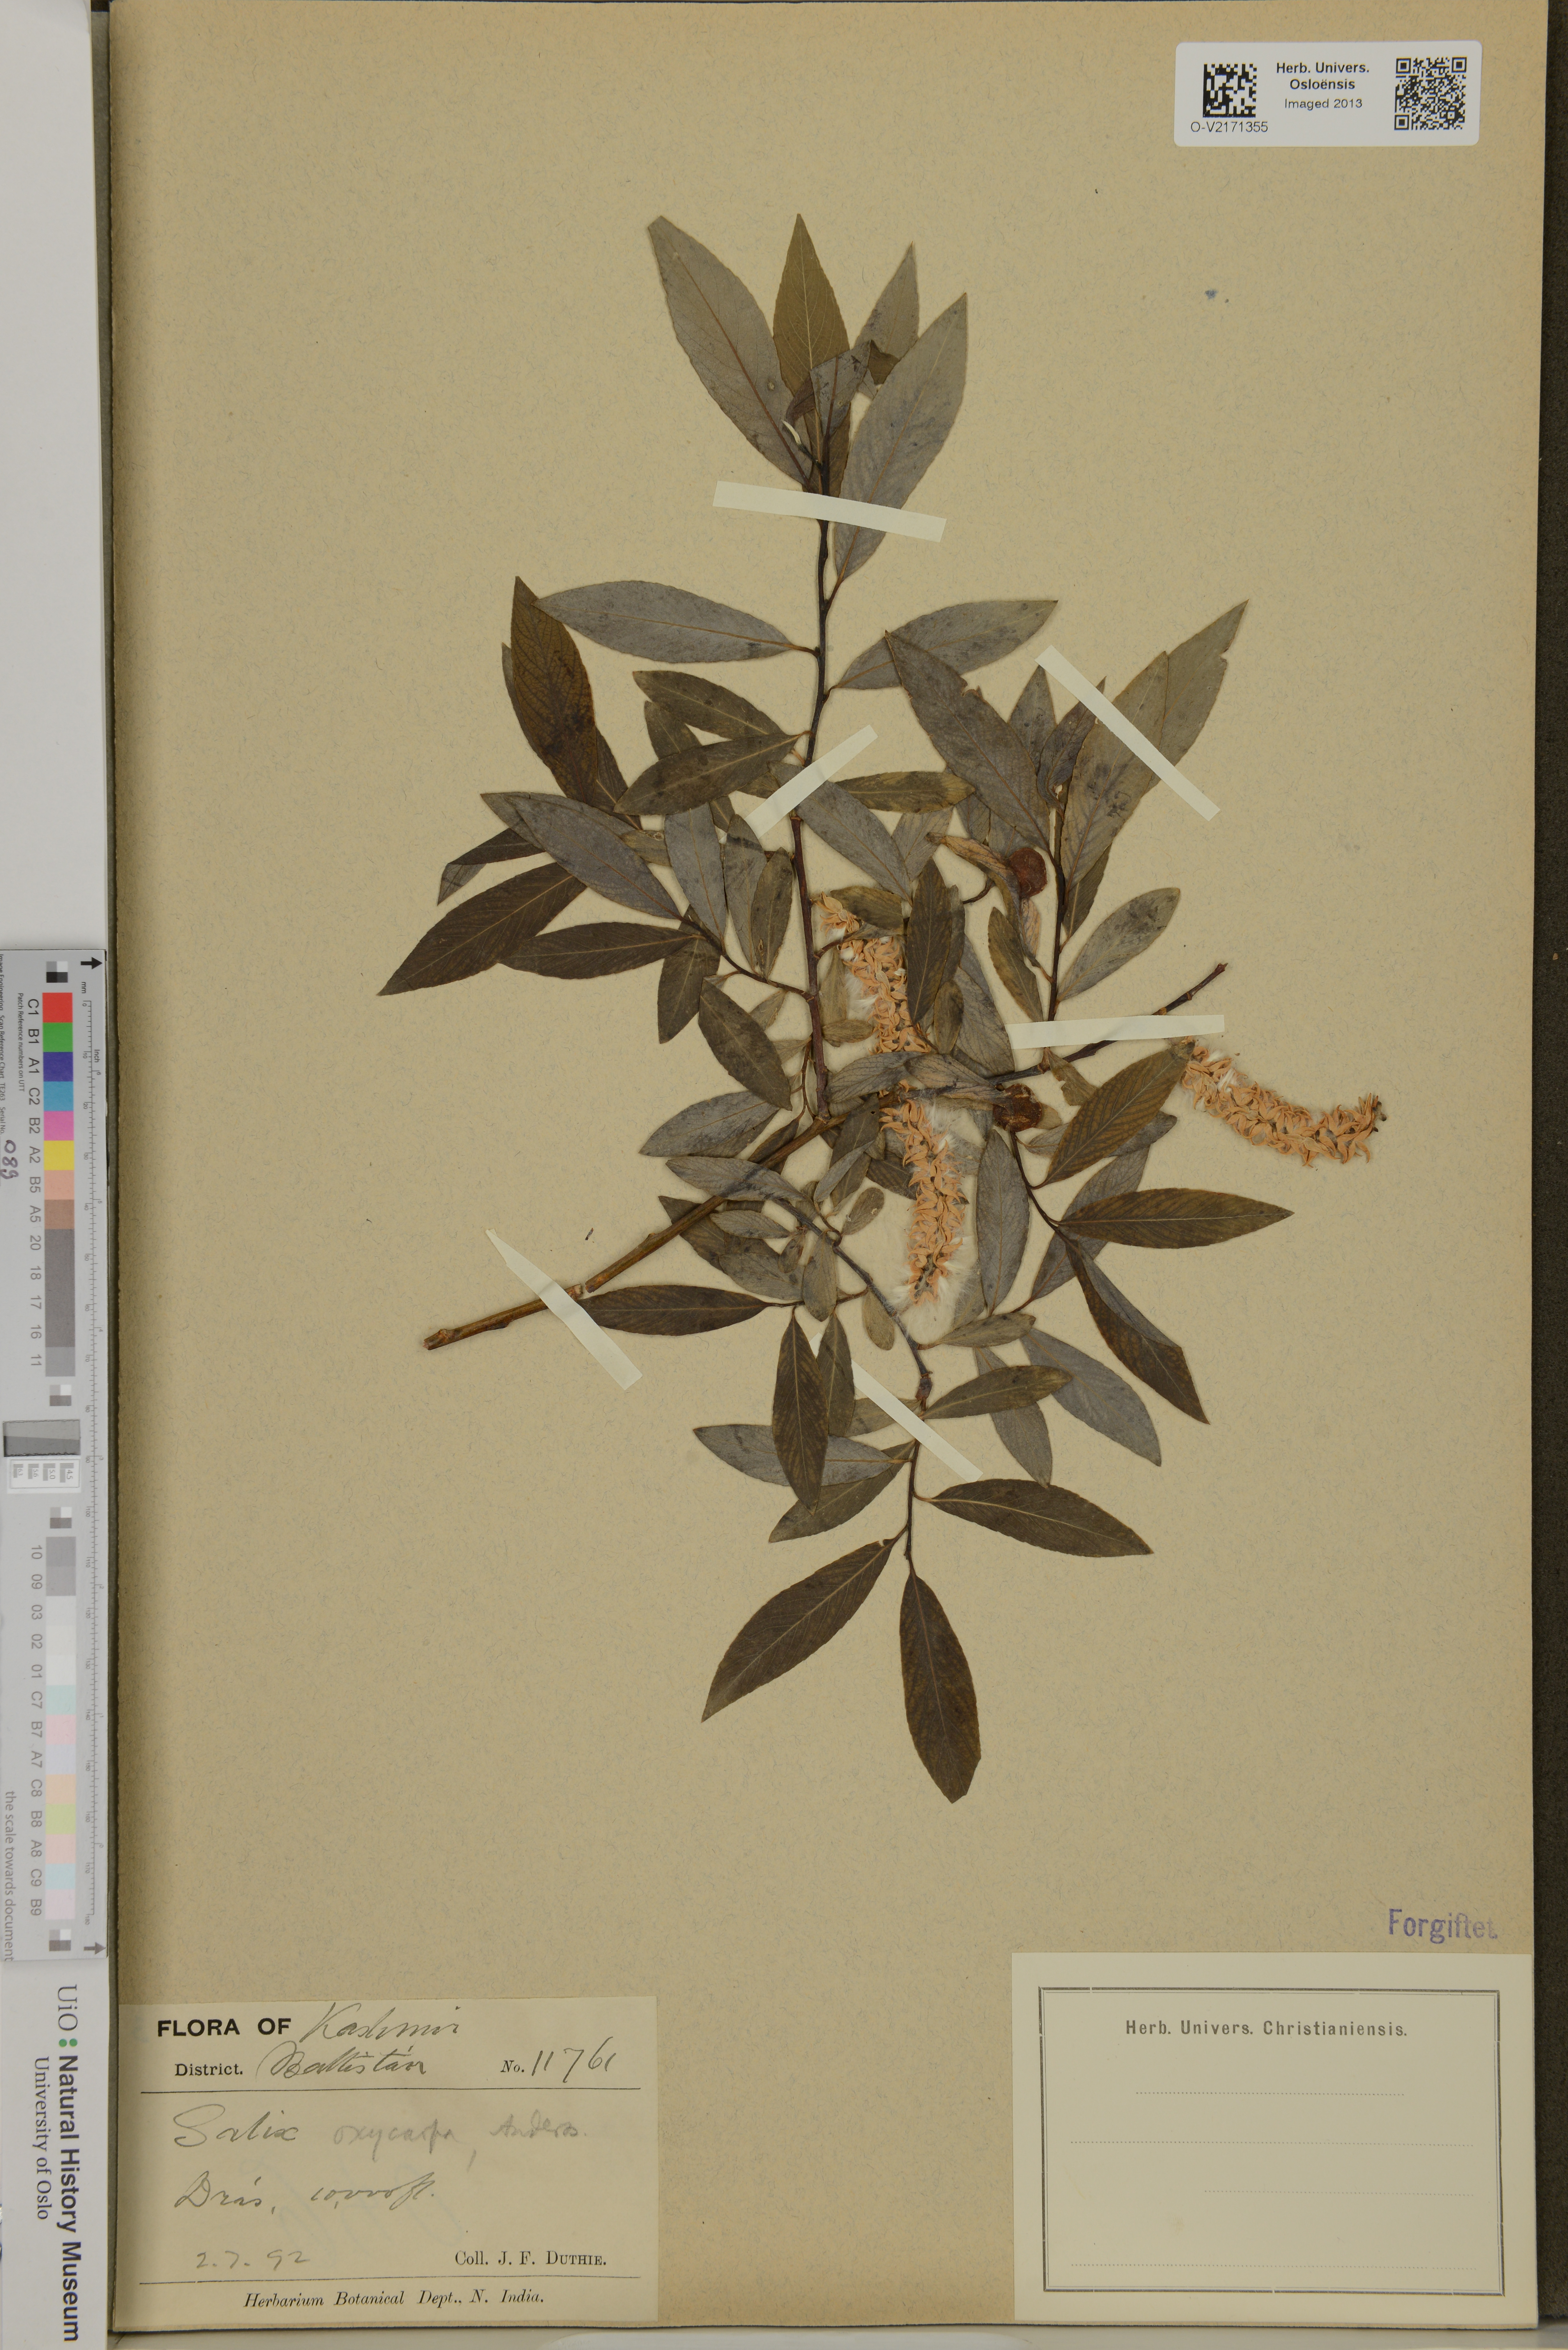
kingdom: Plantae
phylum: Tracheophyta
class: Magnoliopsida
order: Malpighiales
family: Salicaceae
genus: Salix
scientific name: Salix sericocarpa
